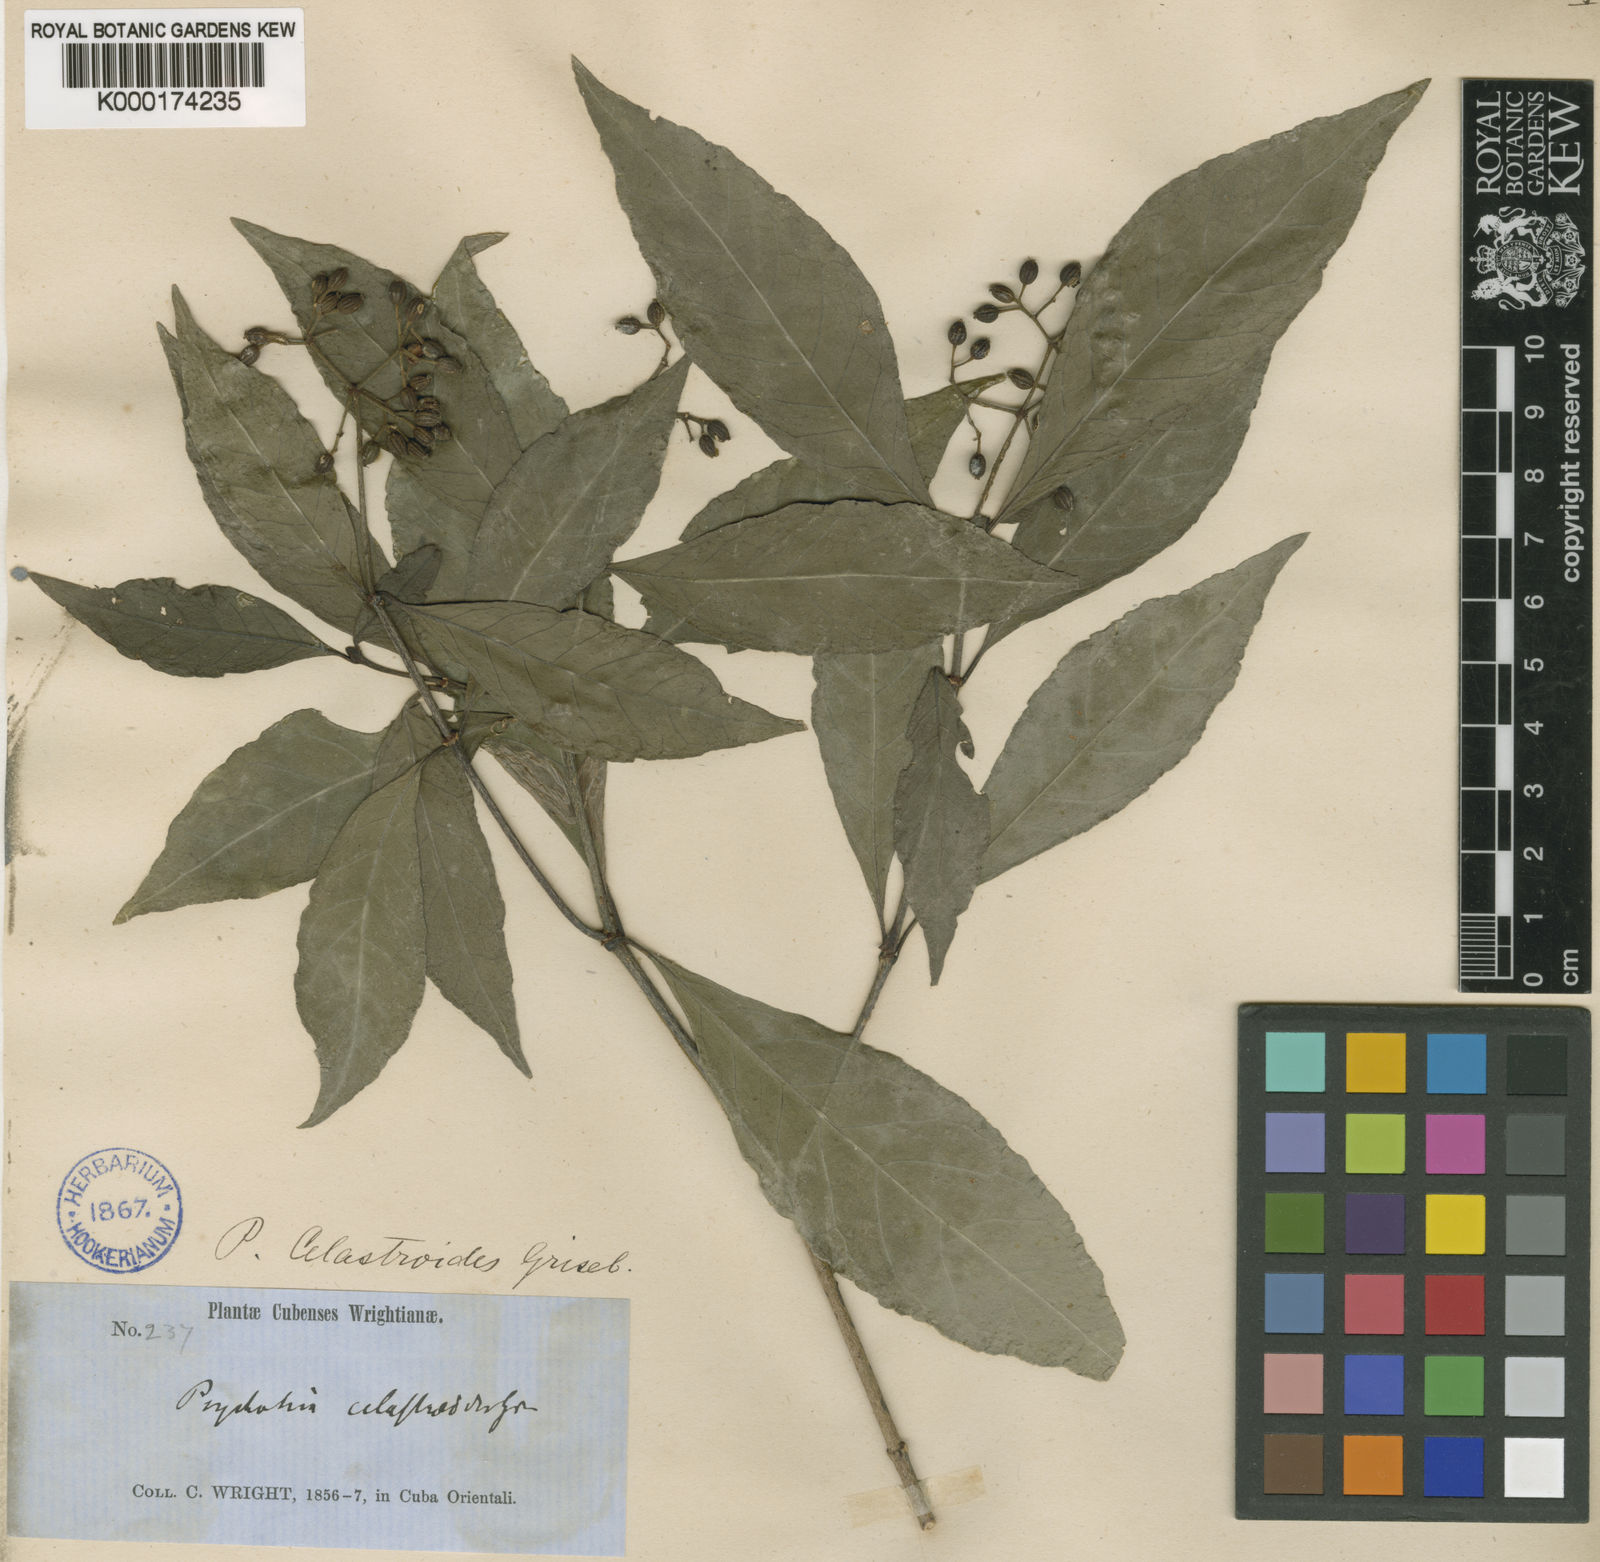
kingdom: Plantae
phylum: Tracheophyta
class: Magnoliopsida
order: Gentianales
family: Rubiaceae
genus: Psychotria
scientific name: Psychotria congesta
